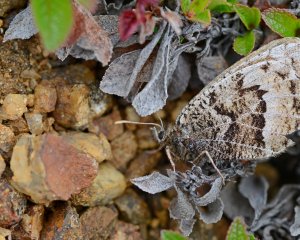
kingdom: Animalia
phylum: Arthropoda
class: Insecta
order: Lepidoptera
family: Nymphalidae
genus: Oeneis
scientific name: Oeneis bore
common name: White-veined Arctic
